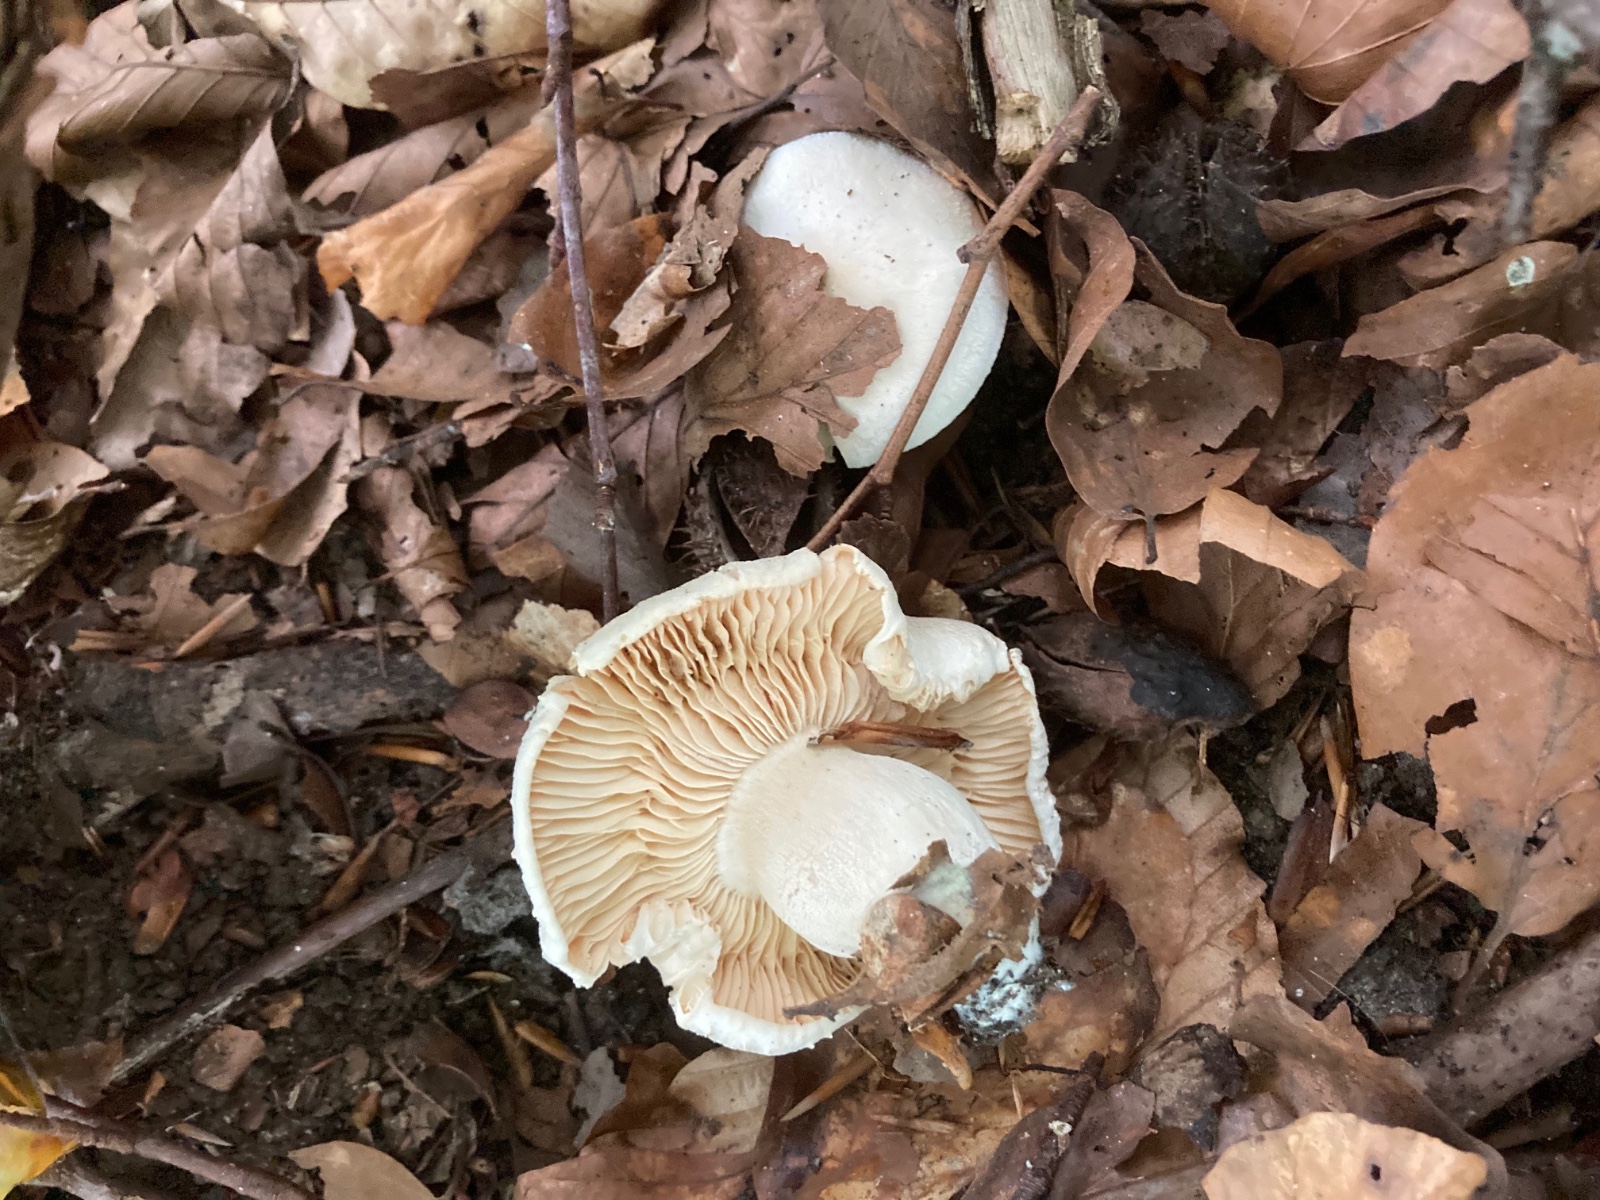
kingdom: Fungi
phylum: Basidiomycota
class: Agaricomycetes
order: Agaricales
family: Hygrophoraceae
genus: Hygrophorus
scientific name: Hygrophorus penarius
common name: spiselig sneglehat
